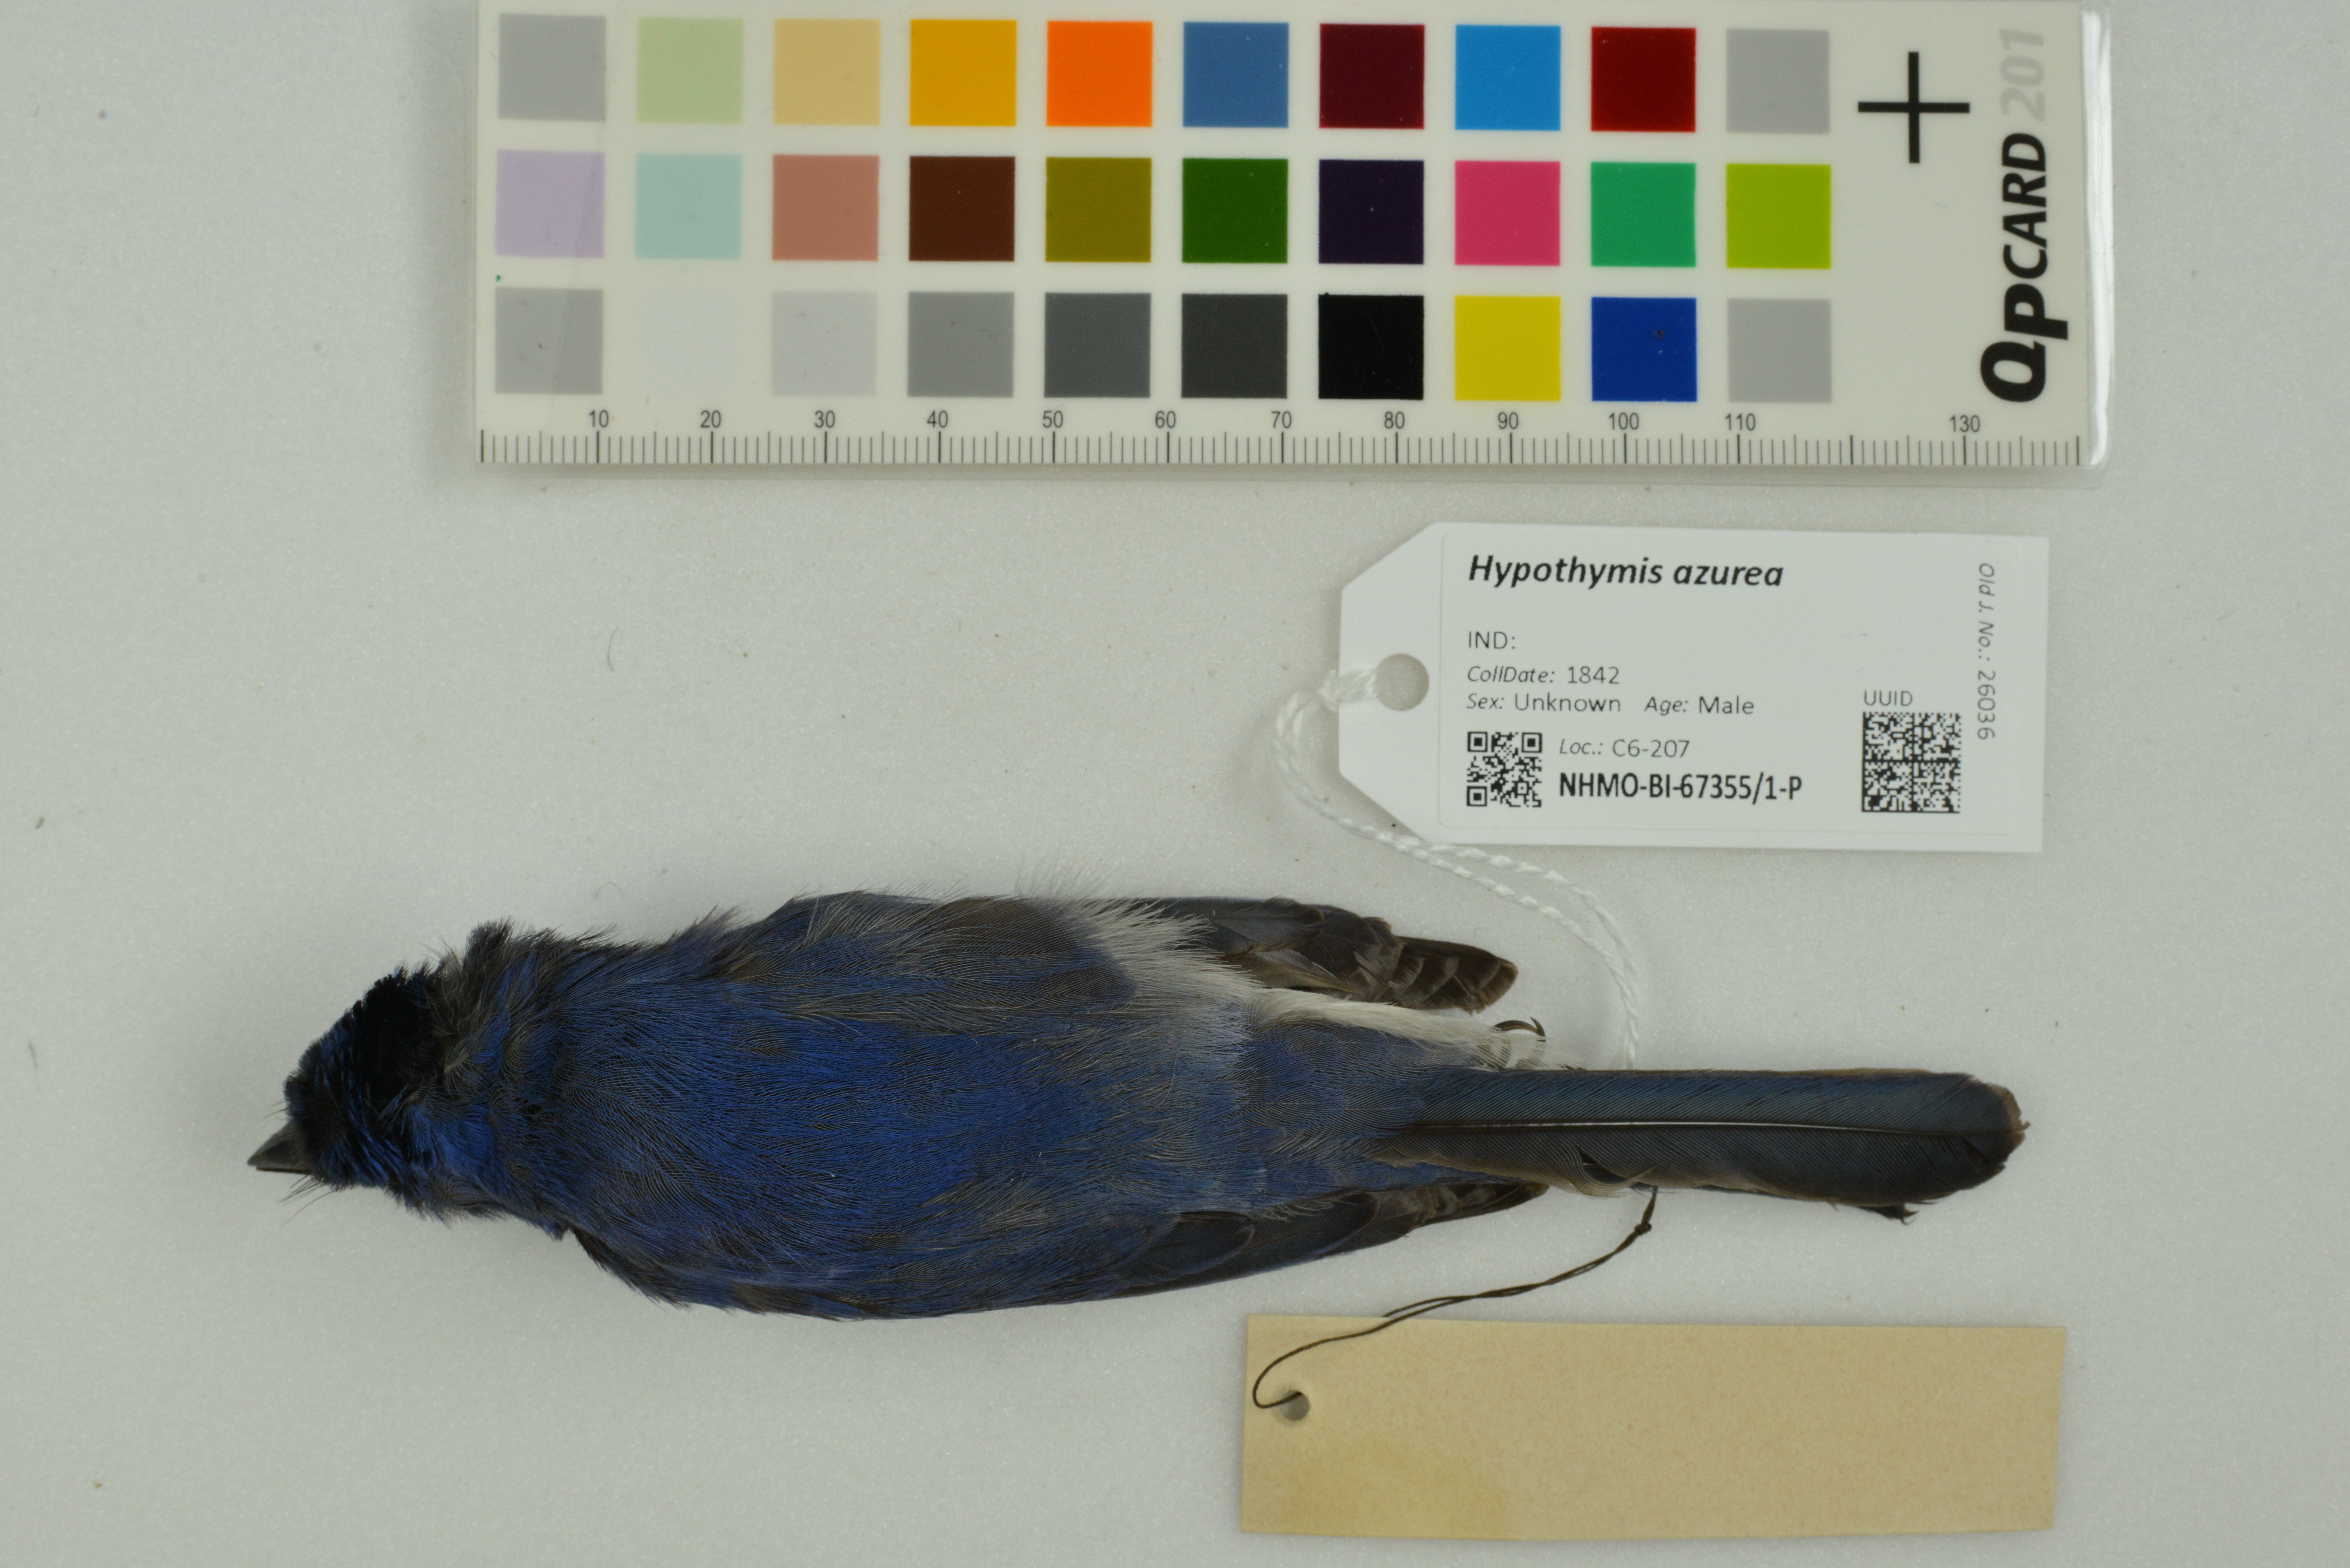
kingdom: Animalia
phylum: Chordata
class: Aves
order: Passeriformes
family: Monarchidae
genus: Hypothymis
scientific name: Hypothymis azurea
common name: Black-naped monarch
